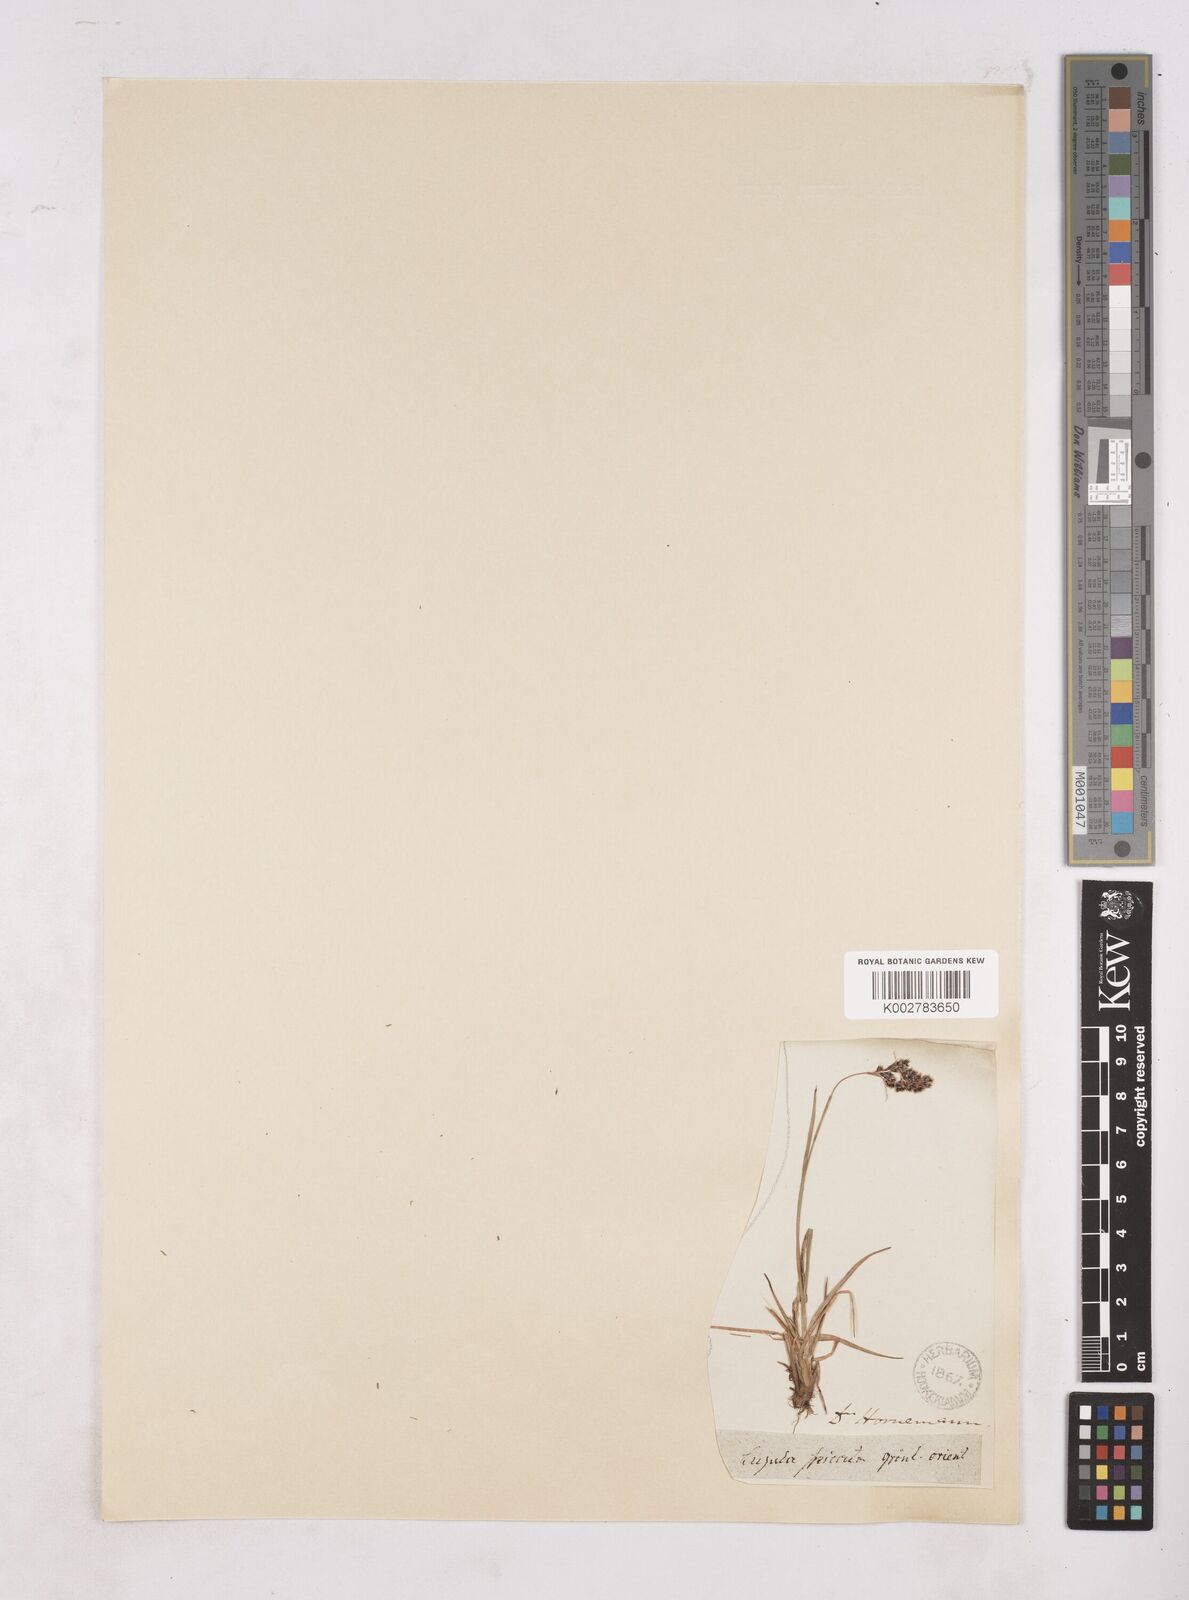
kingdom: Plantae
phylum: Tracheophyta
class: Liliopsida
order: Poales
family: Juncaceae
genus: Luzula
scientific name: Luzula spicata
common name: Spiked wood-rush
